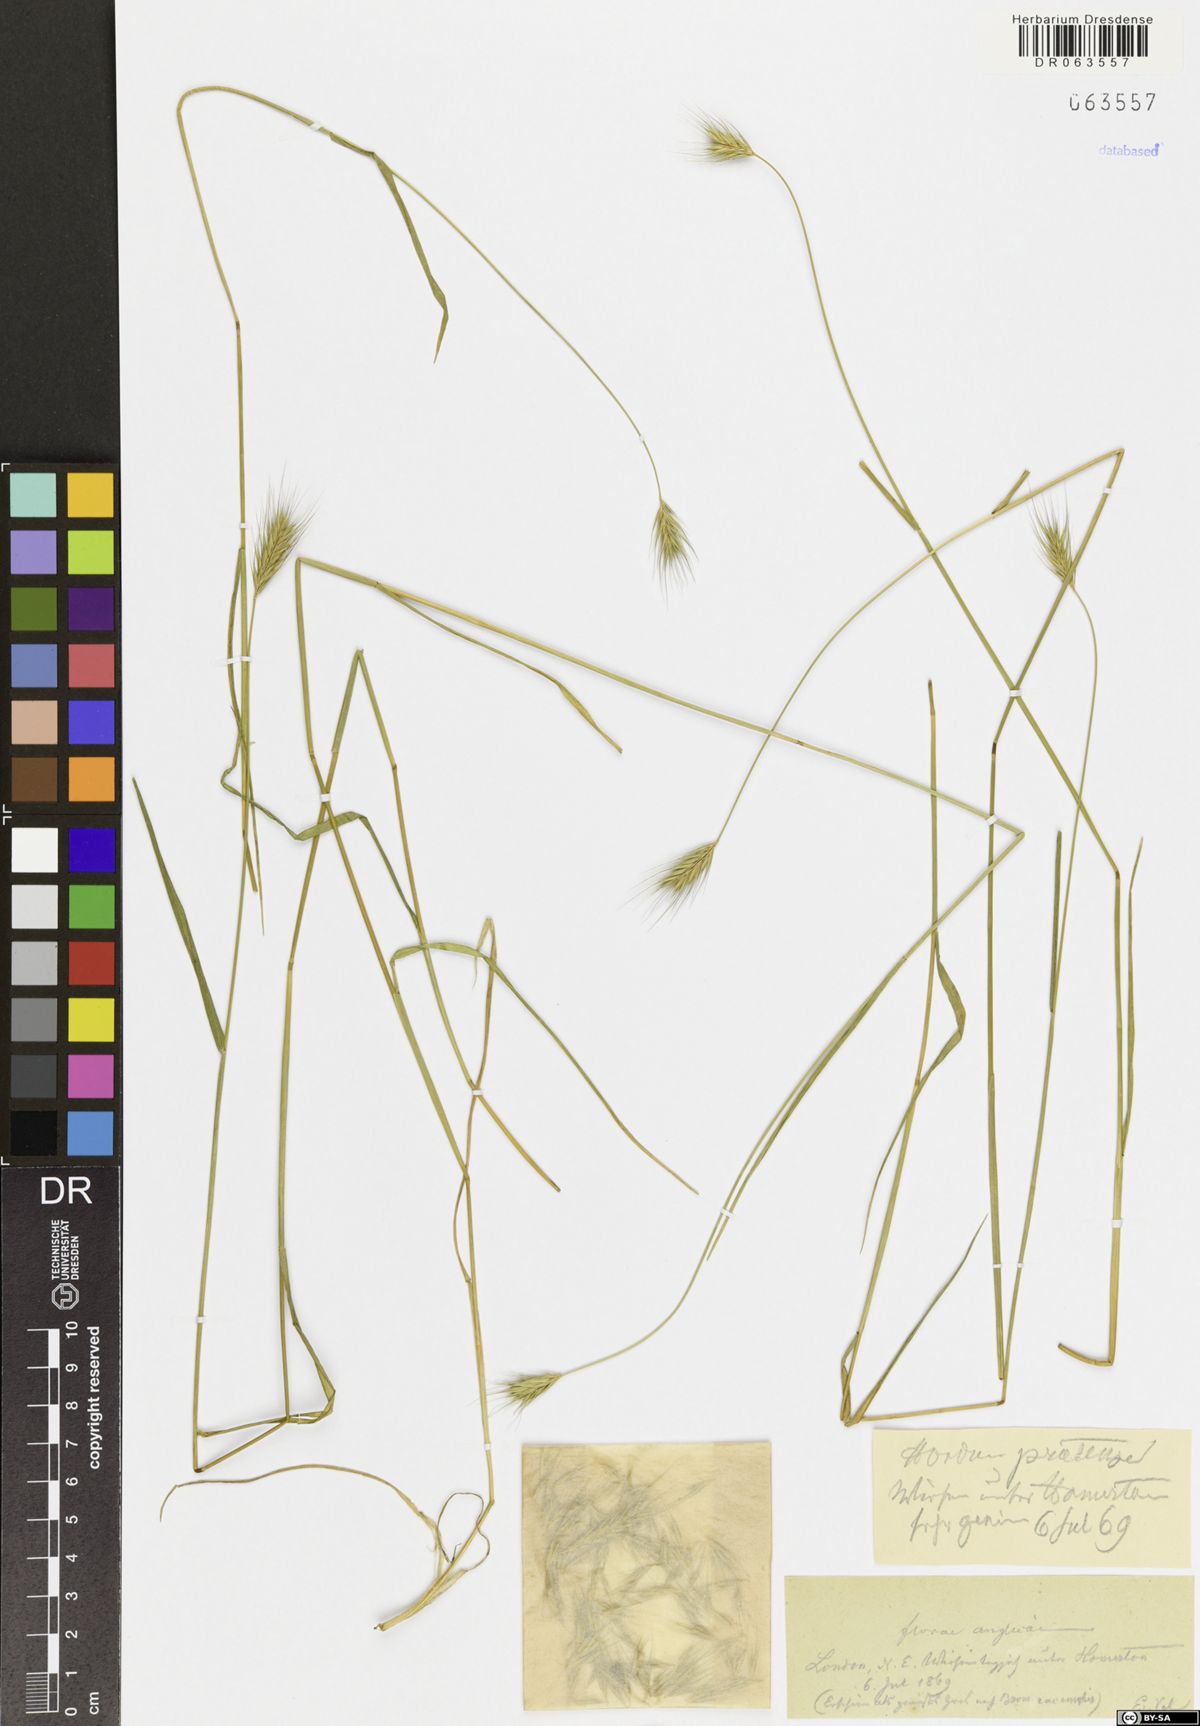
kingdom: Plantae
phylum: Tracheophyta
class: Liliopsida
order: Poales
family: Poaceae
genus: Hordeum
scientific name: Hordeum secalinum
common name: Meadow barley
